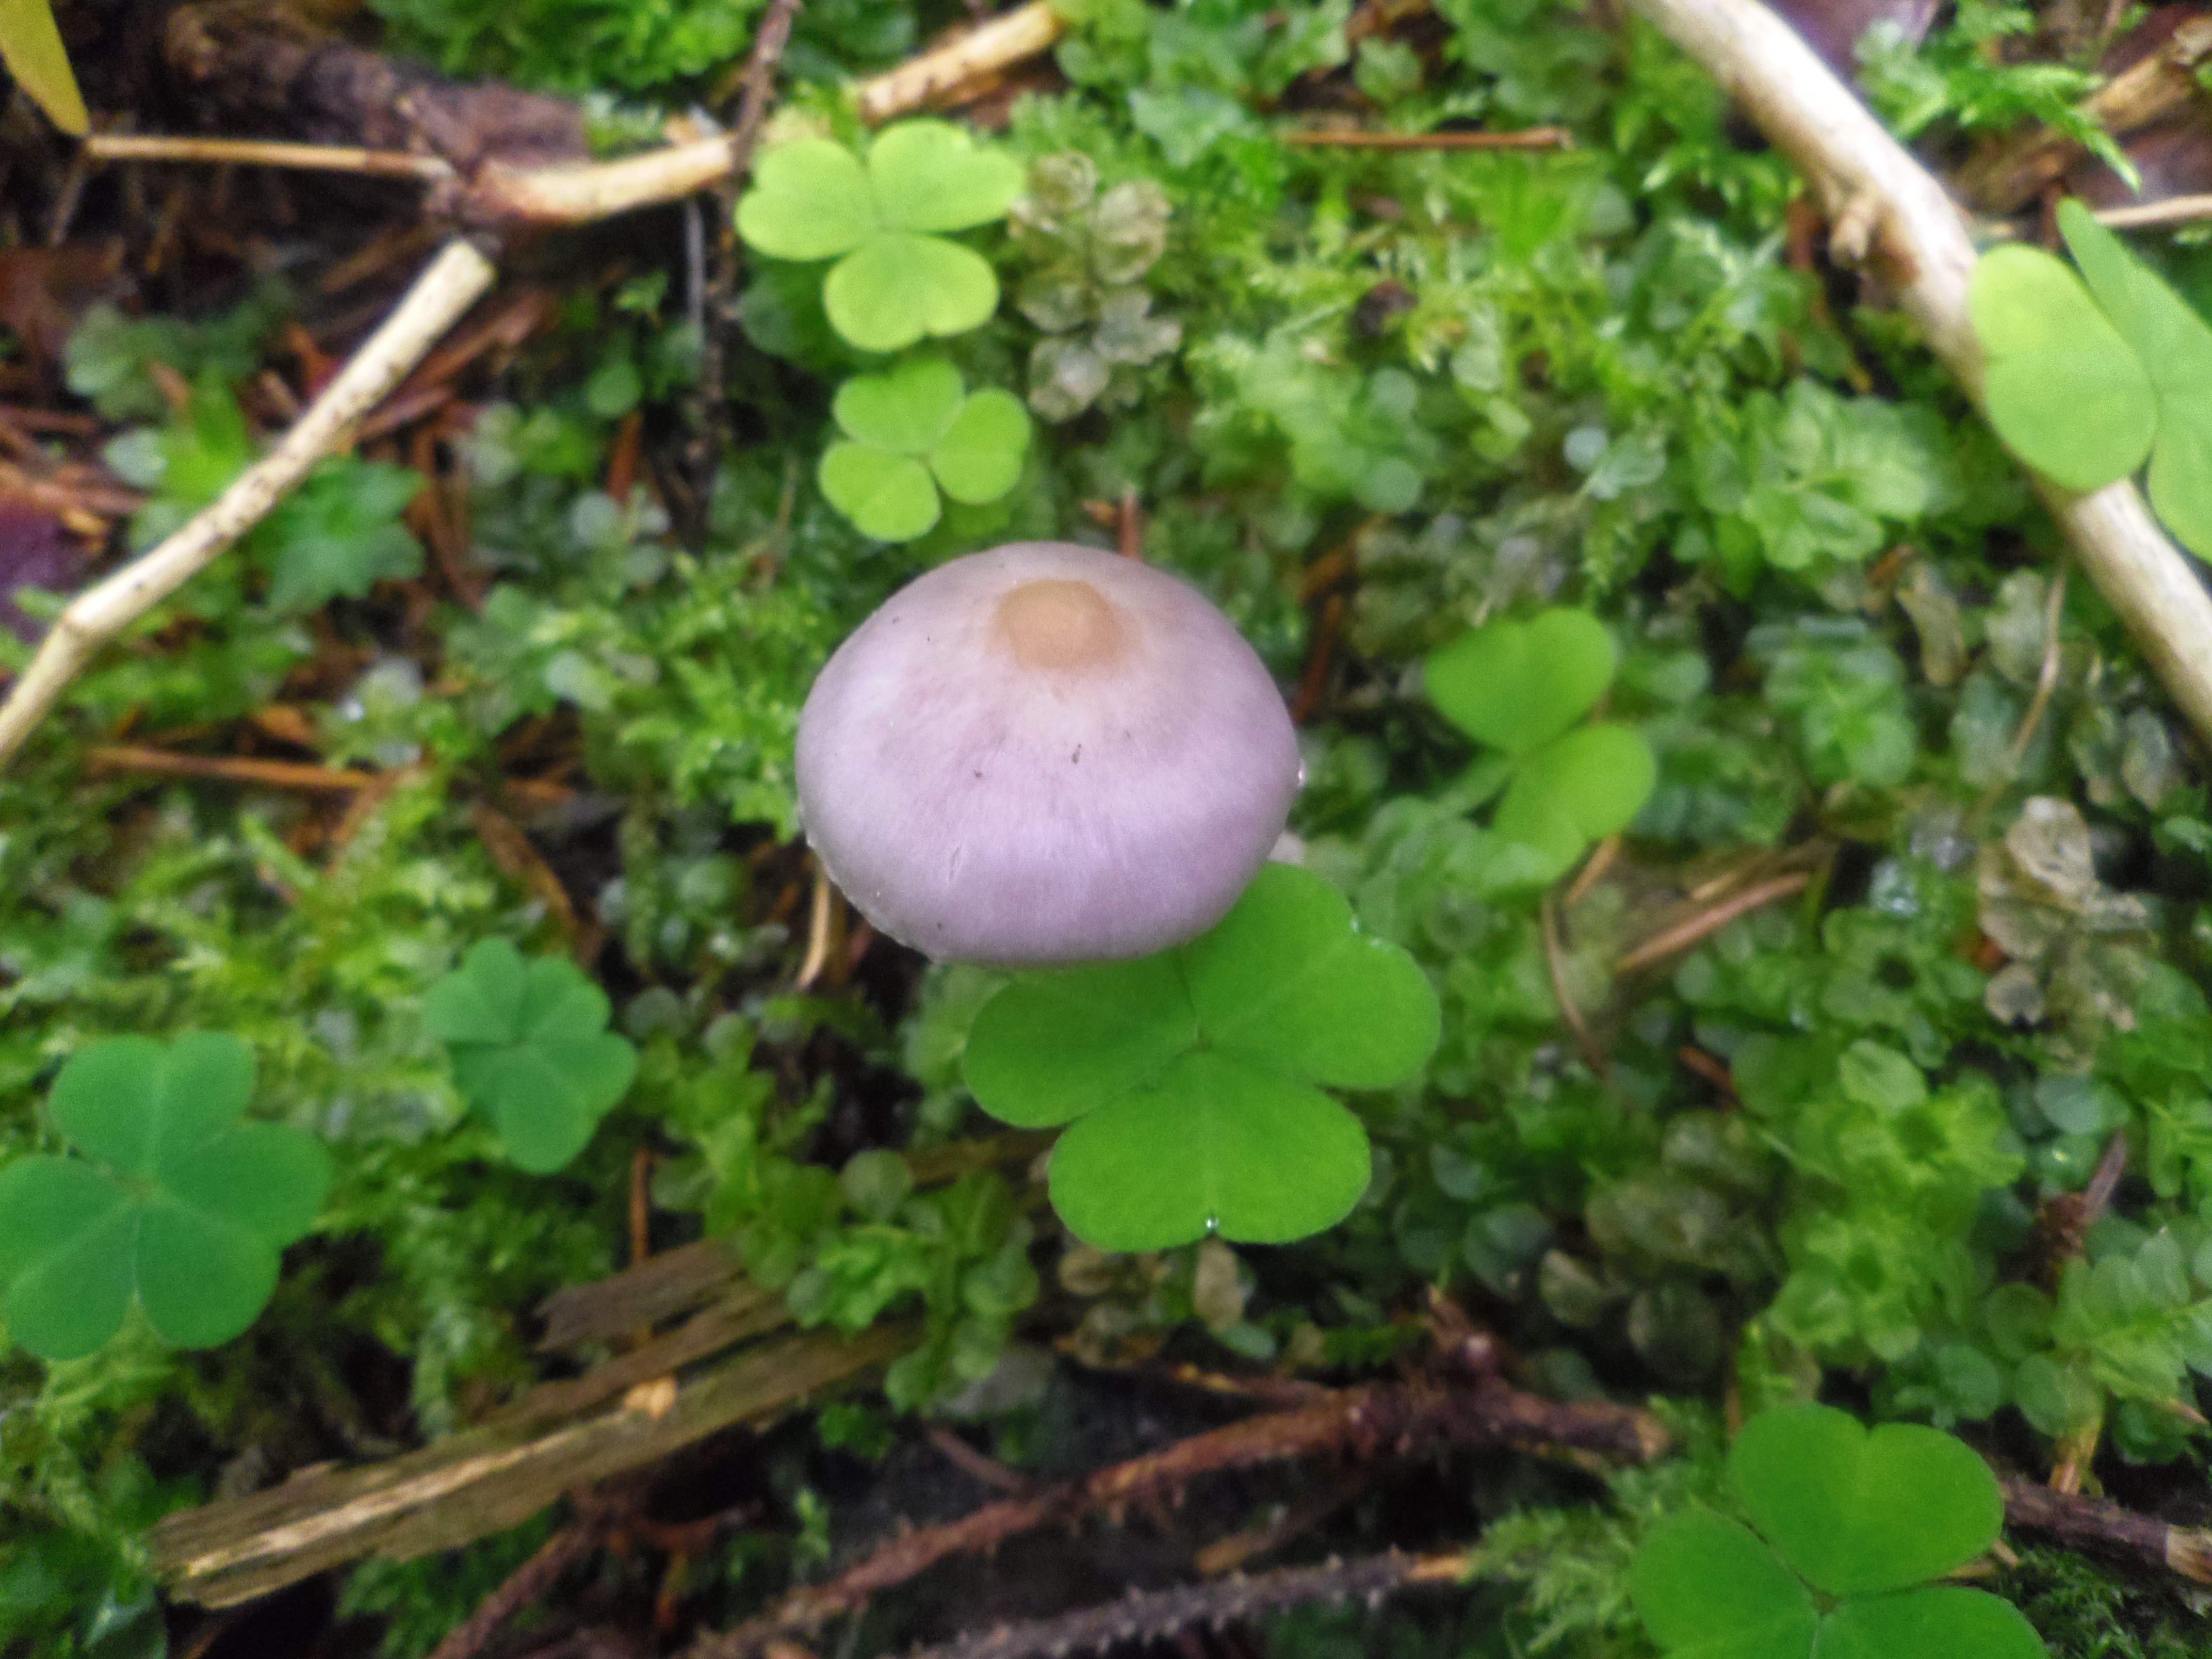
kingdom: Fungi
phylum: Basidiomycota
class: Agaricomycetes
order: Agaricales
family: Inocybaceae
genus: Inocybe
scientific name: Inocybe geophylla
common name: White fibrecap
